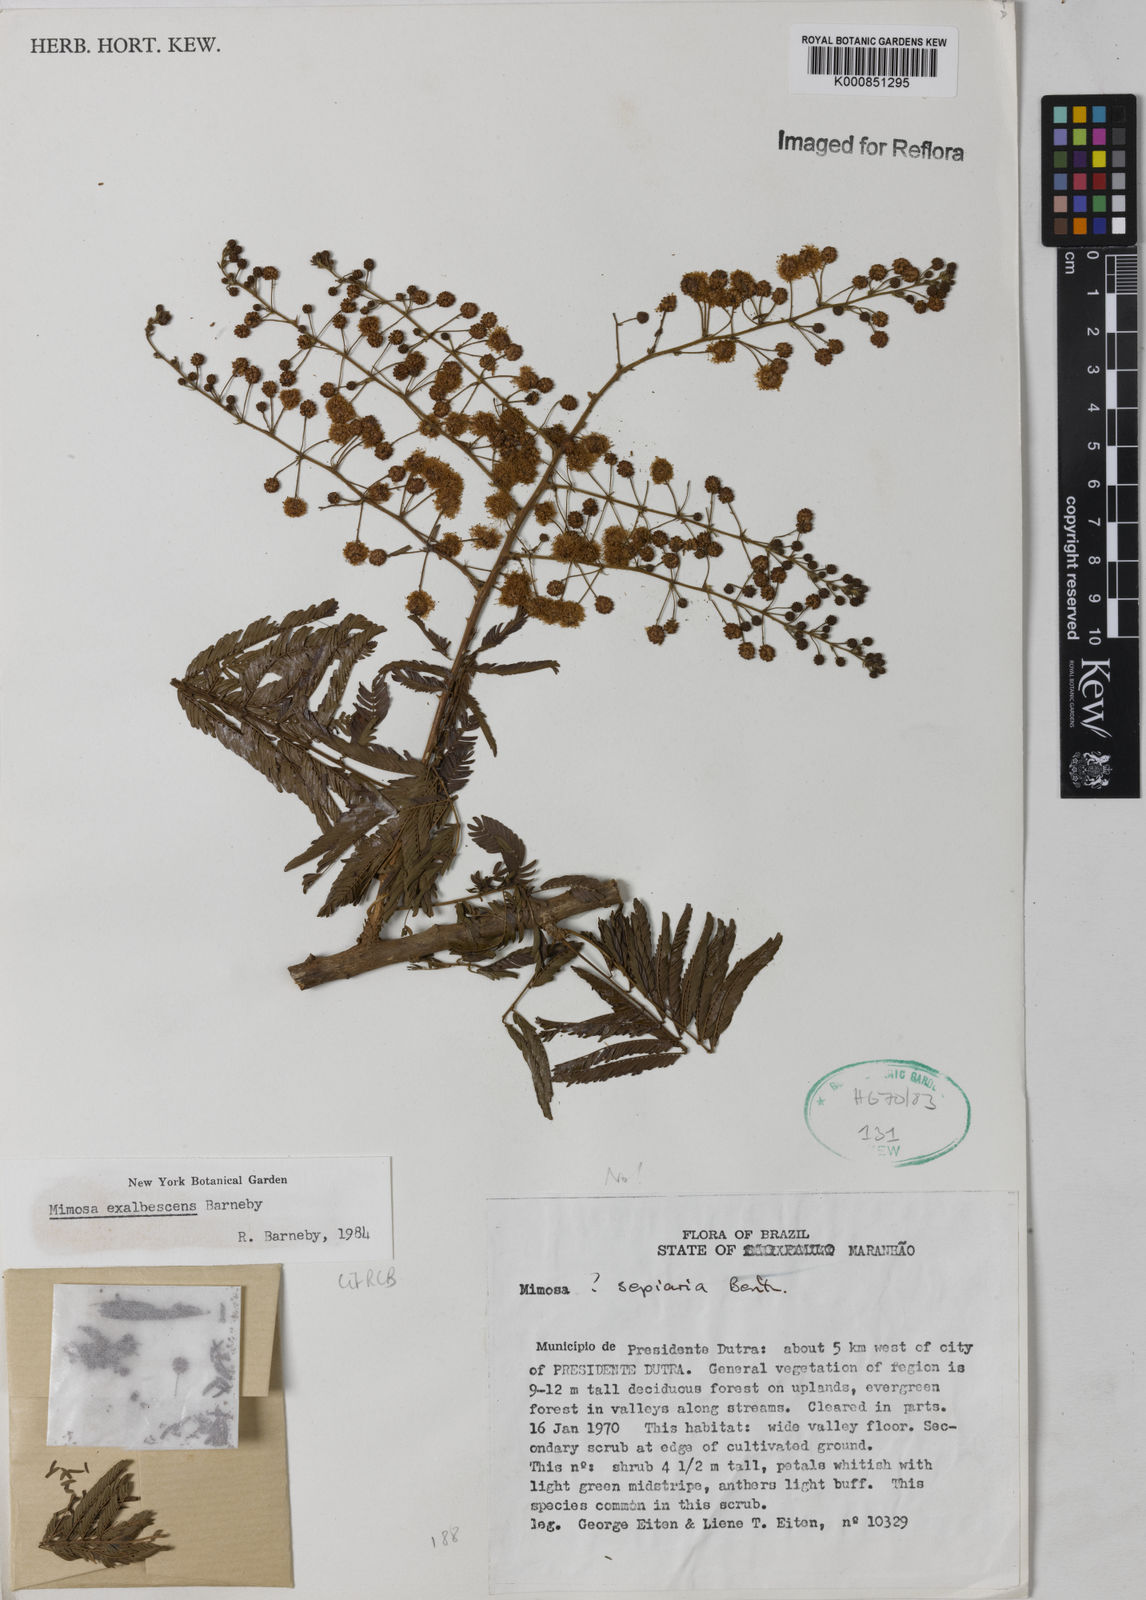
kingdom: Plantae
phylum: Tracheophyta
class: Magnoliopsida
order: Fabales
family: Fabaceae
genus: Mimosa
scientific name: Mimosa exalbescens
